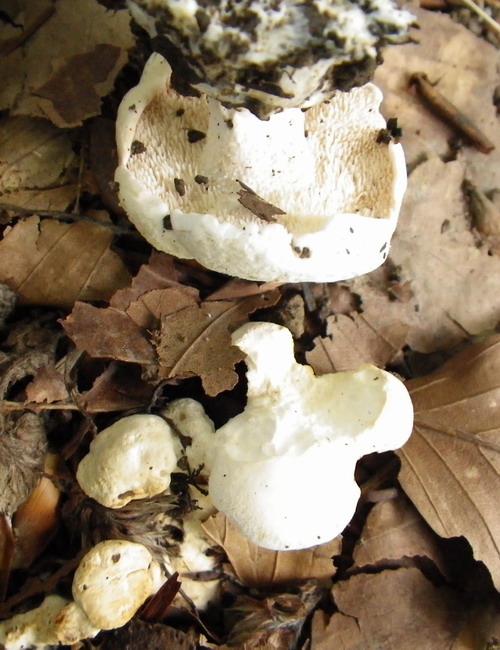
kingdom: Fungi
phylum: Basidiomycota
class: Agaricomycetes
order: Cantharellales
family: Hydnaceae
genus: Hydnum
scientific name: Hydnum repandum
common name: hvid pigsvamp
